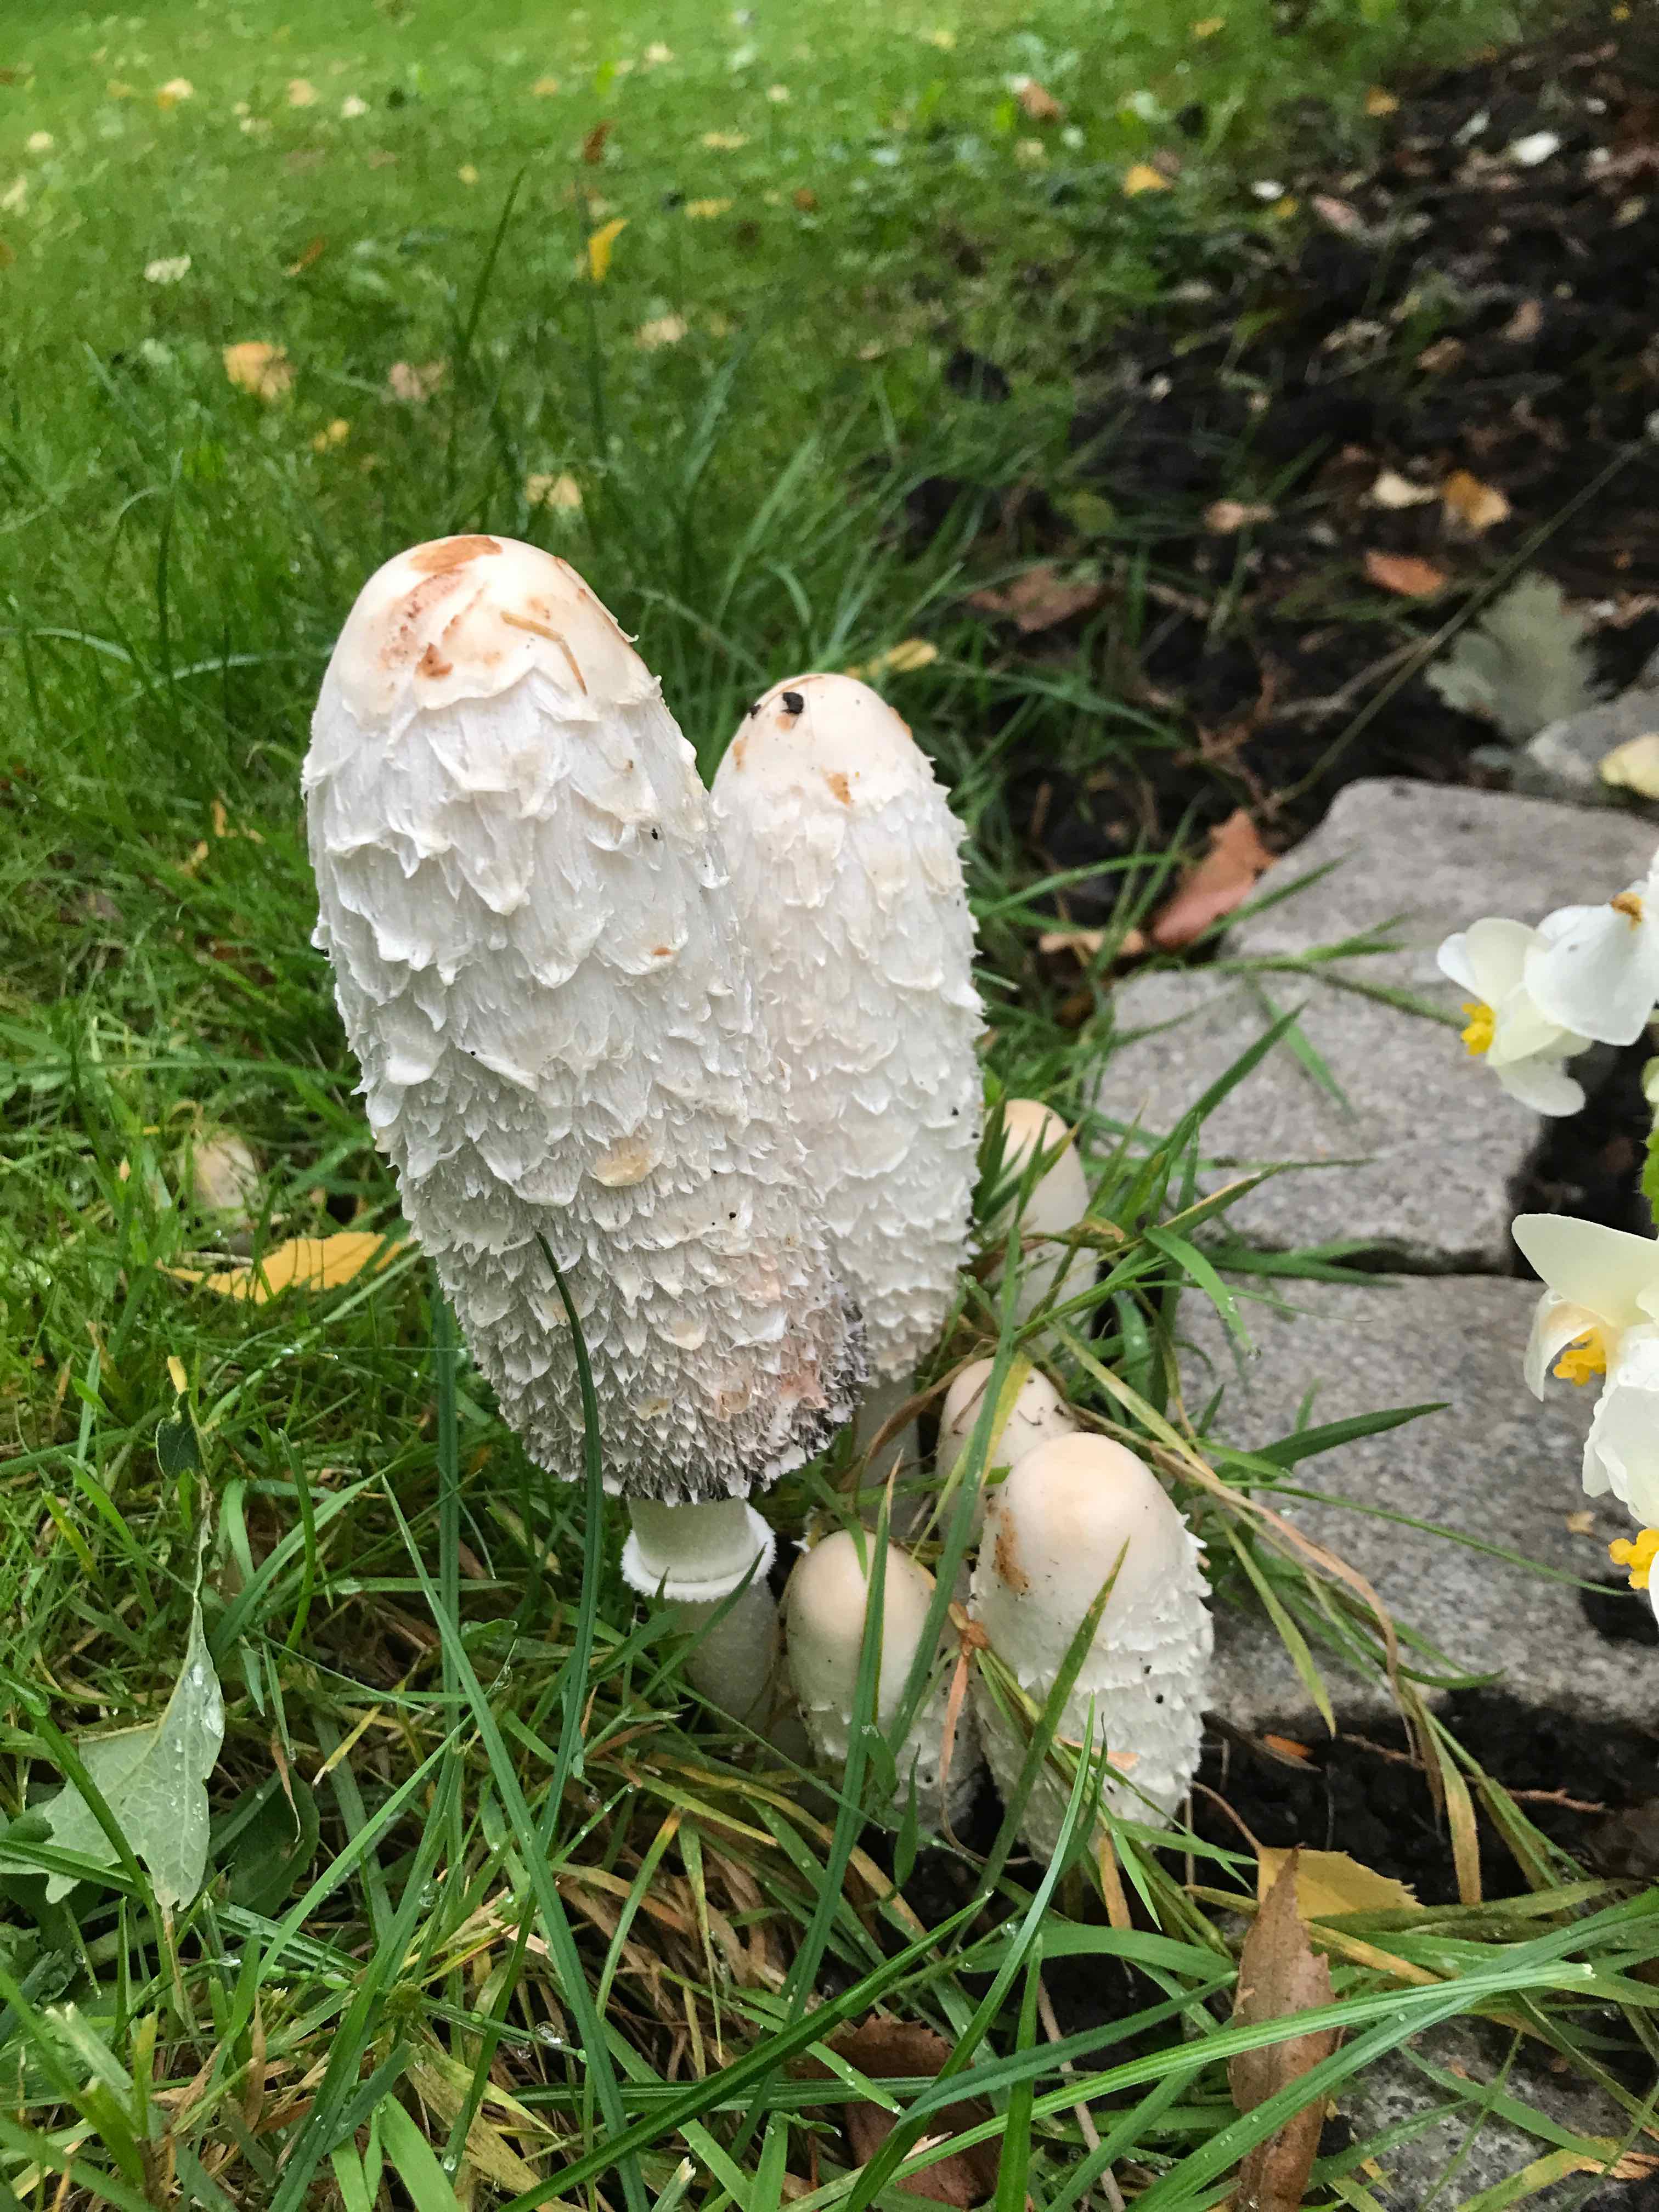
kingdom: Fungi
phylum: Basidiomycota
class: Agaricomycetes
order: Agaricales
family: Agaricaceae
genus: Coprinus
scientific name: Coprinus comatus
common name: stor parykhat
